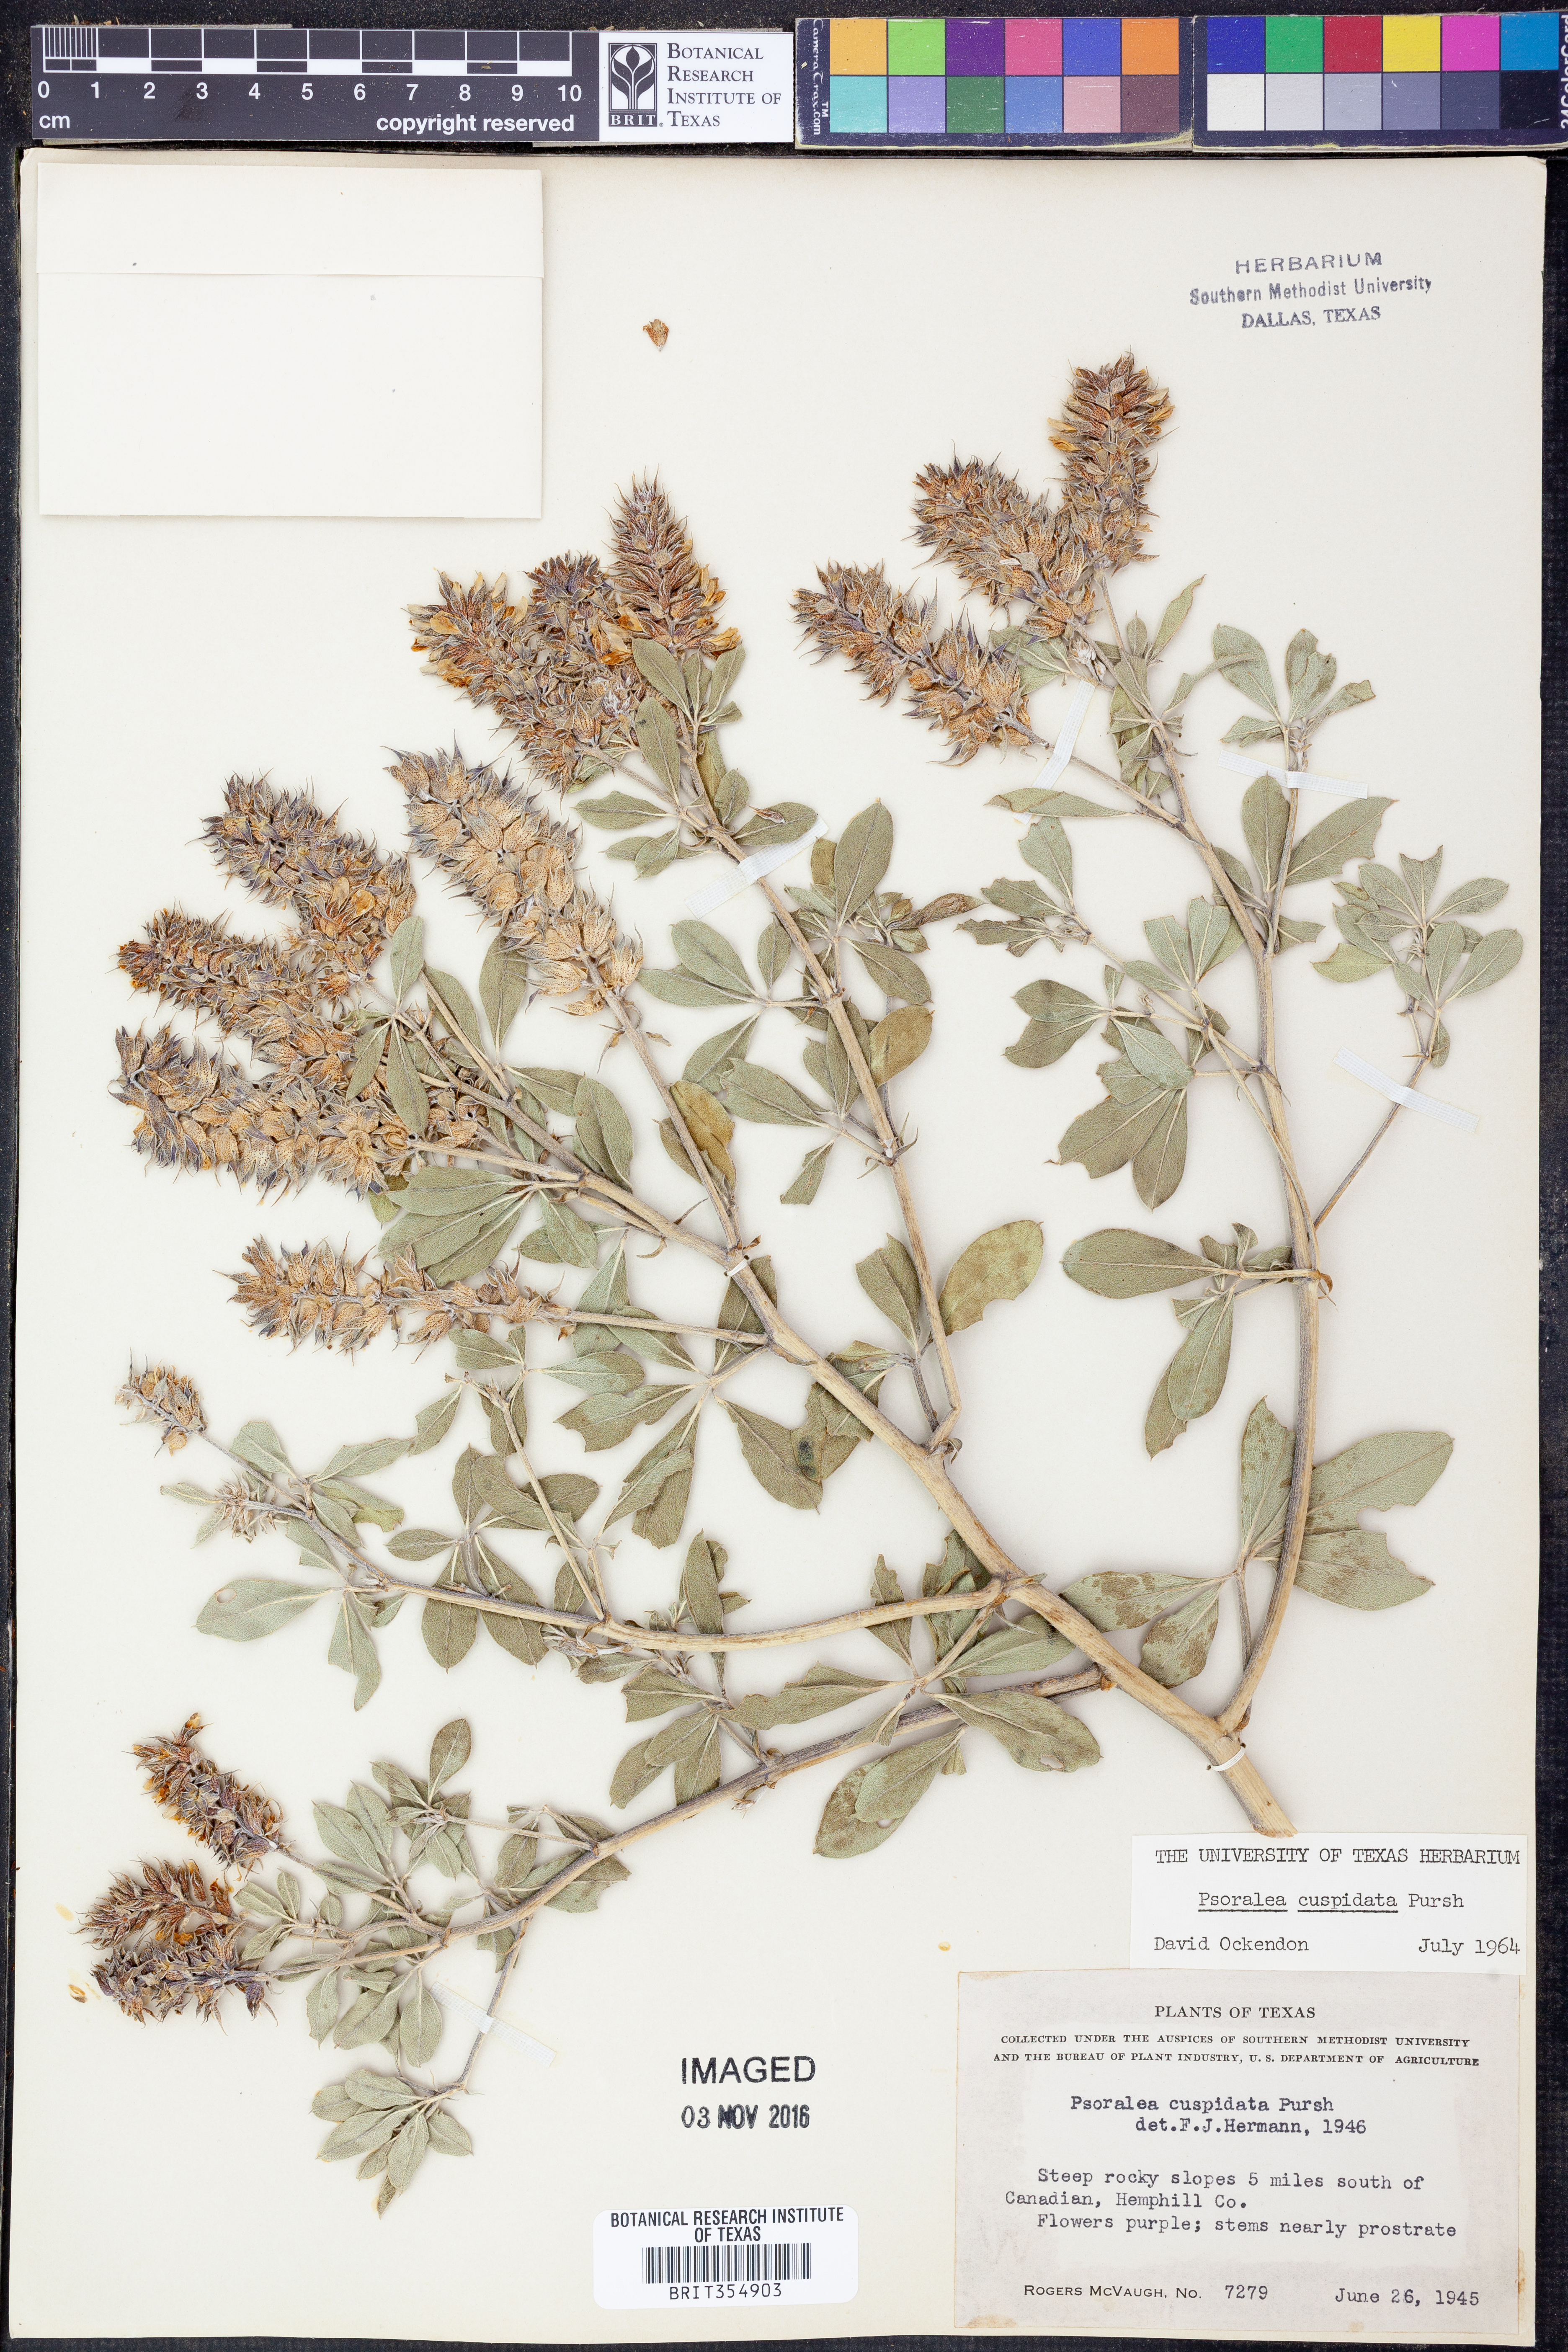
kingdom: Plantae
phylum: Tracheophyta
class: Magnoliopsida
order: Fabales
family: Fabaceae
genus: Pediomelum
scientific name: Pediomelum cuspidatum
